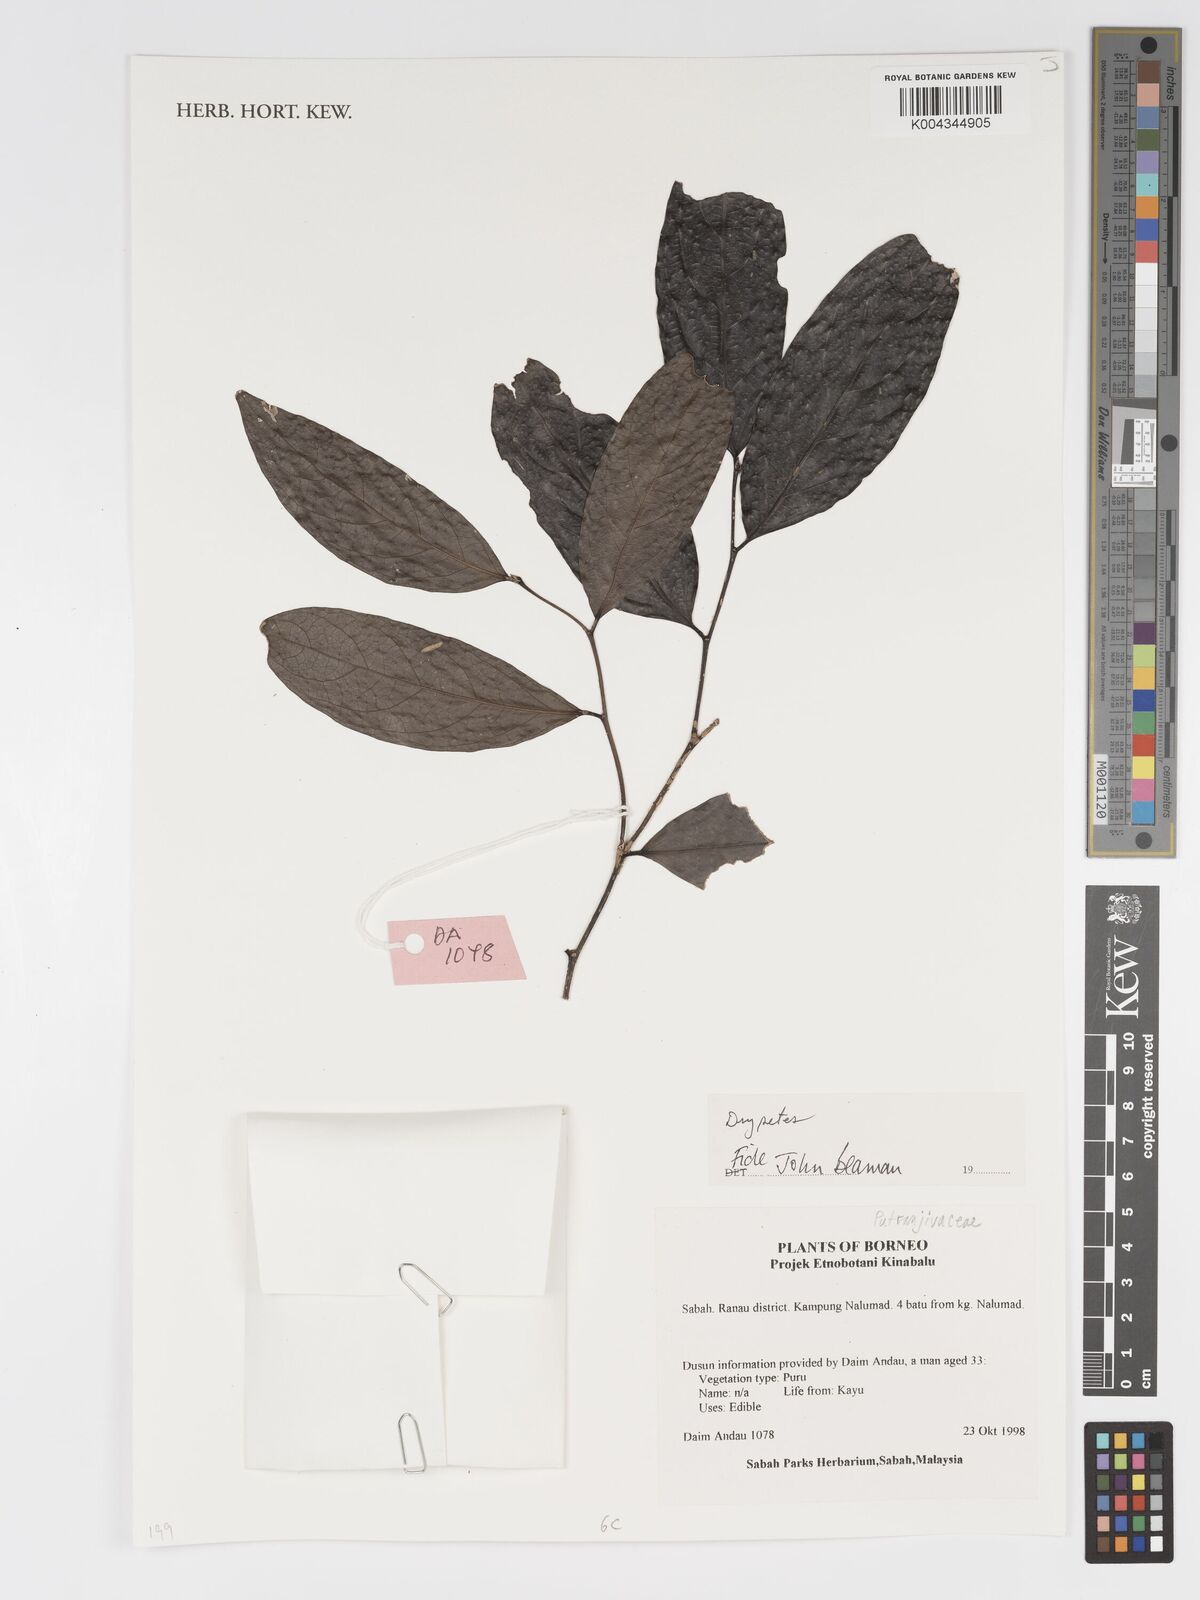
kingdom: Plantae
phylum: Tracheophyta
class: Magnoliopsida
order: Malpighiales
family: Putranjivaceae
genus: Drypetes
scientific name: Drypetes
